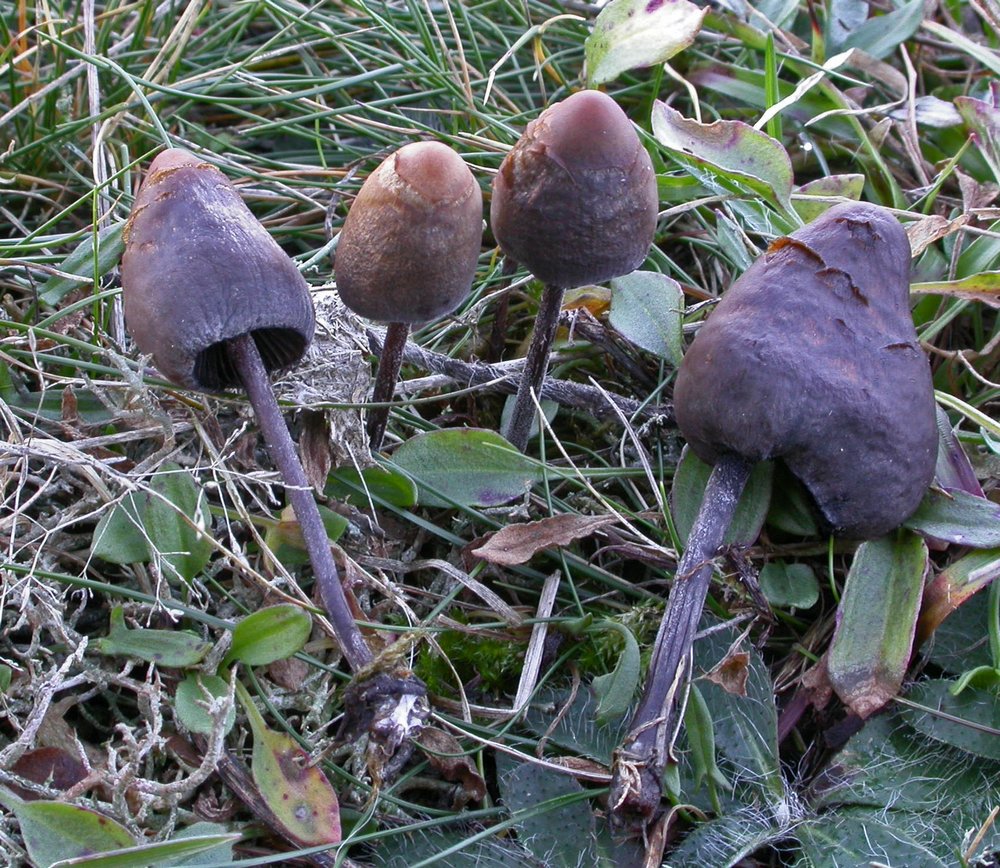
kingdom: Fungi
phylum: Basidiomycota
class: Agaricomycetes
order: Agaricales
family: Bolbitiaceae
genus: Panaeolus
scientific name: Panaeolus acuminatus
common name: høj glanshat
